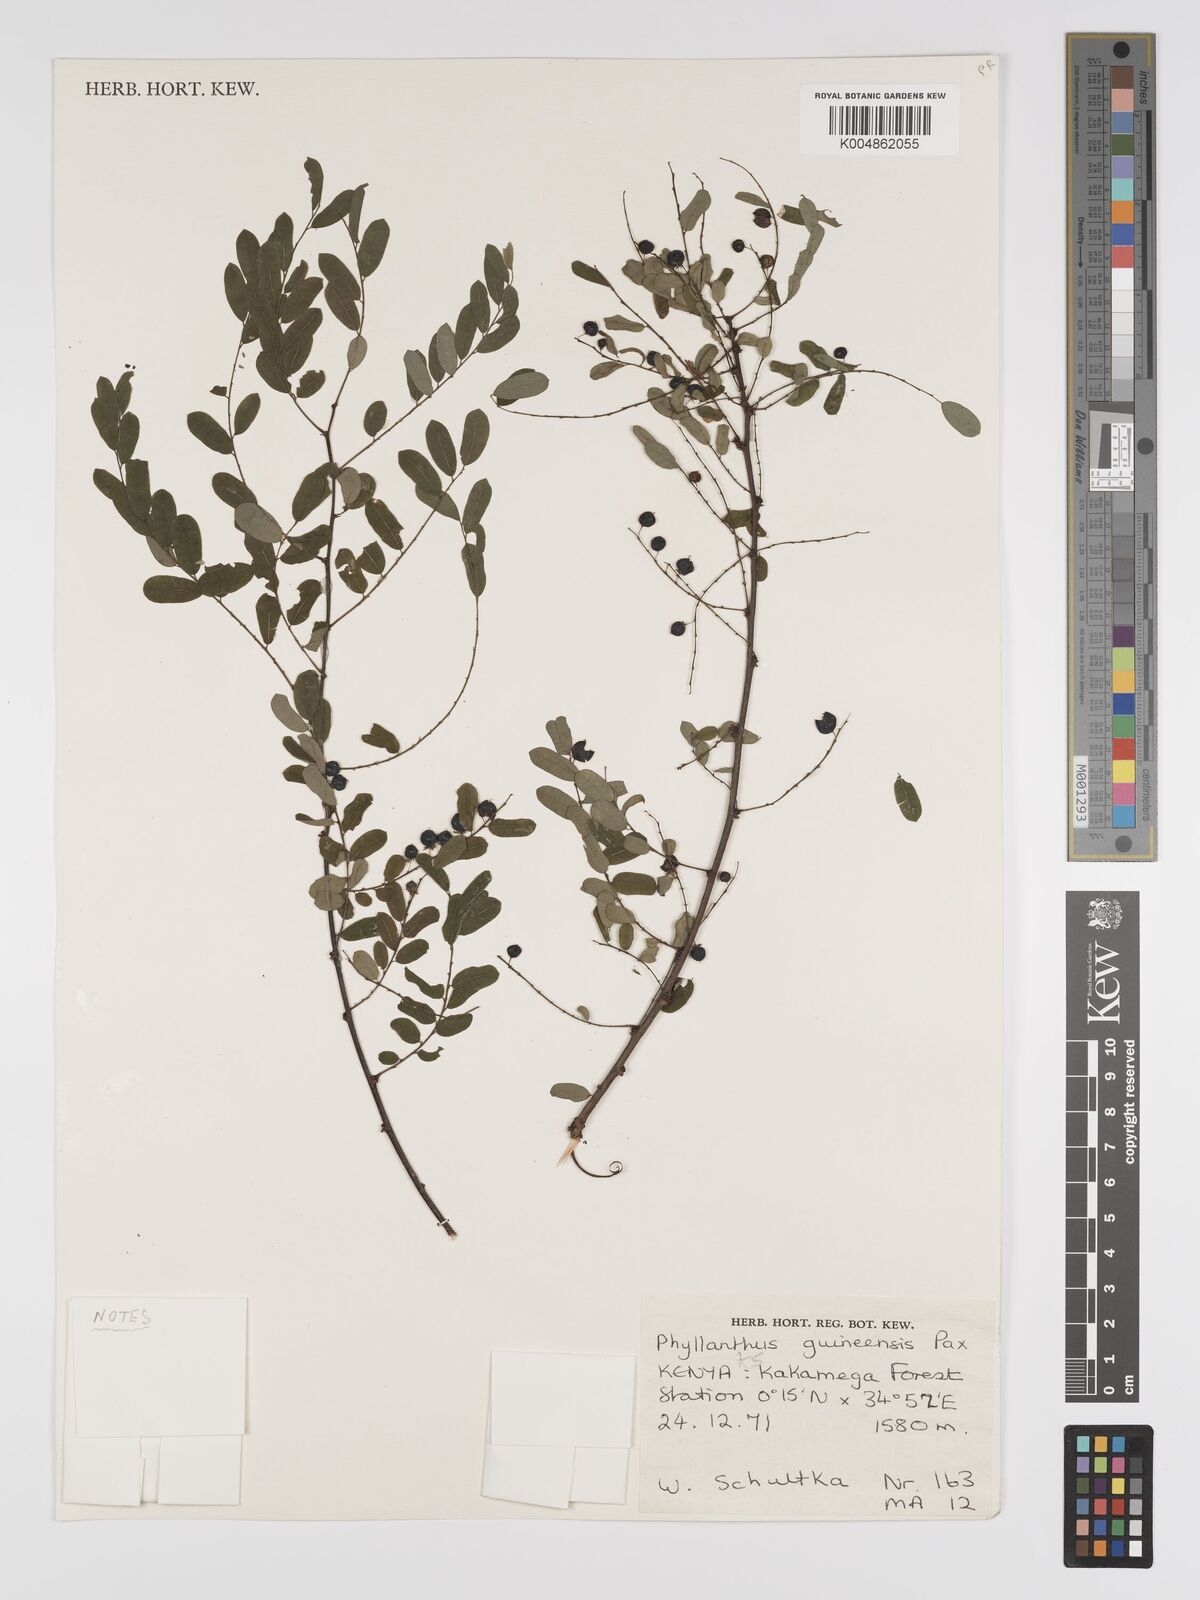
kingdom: Plantae
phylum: Tracheophyta
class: Magnoliopsida
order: Malpighiales
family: Phyllanthaceae
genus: Phyllanthus
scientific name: Phyllanthus ovalifolius
